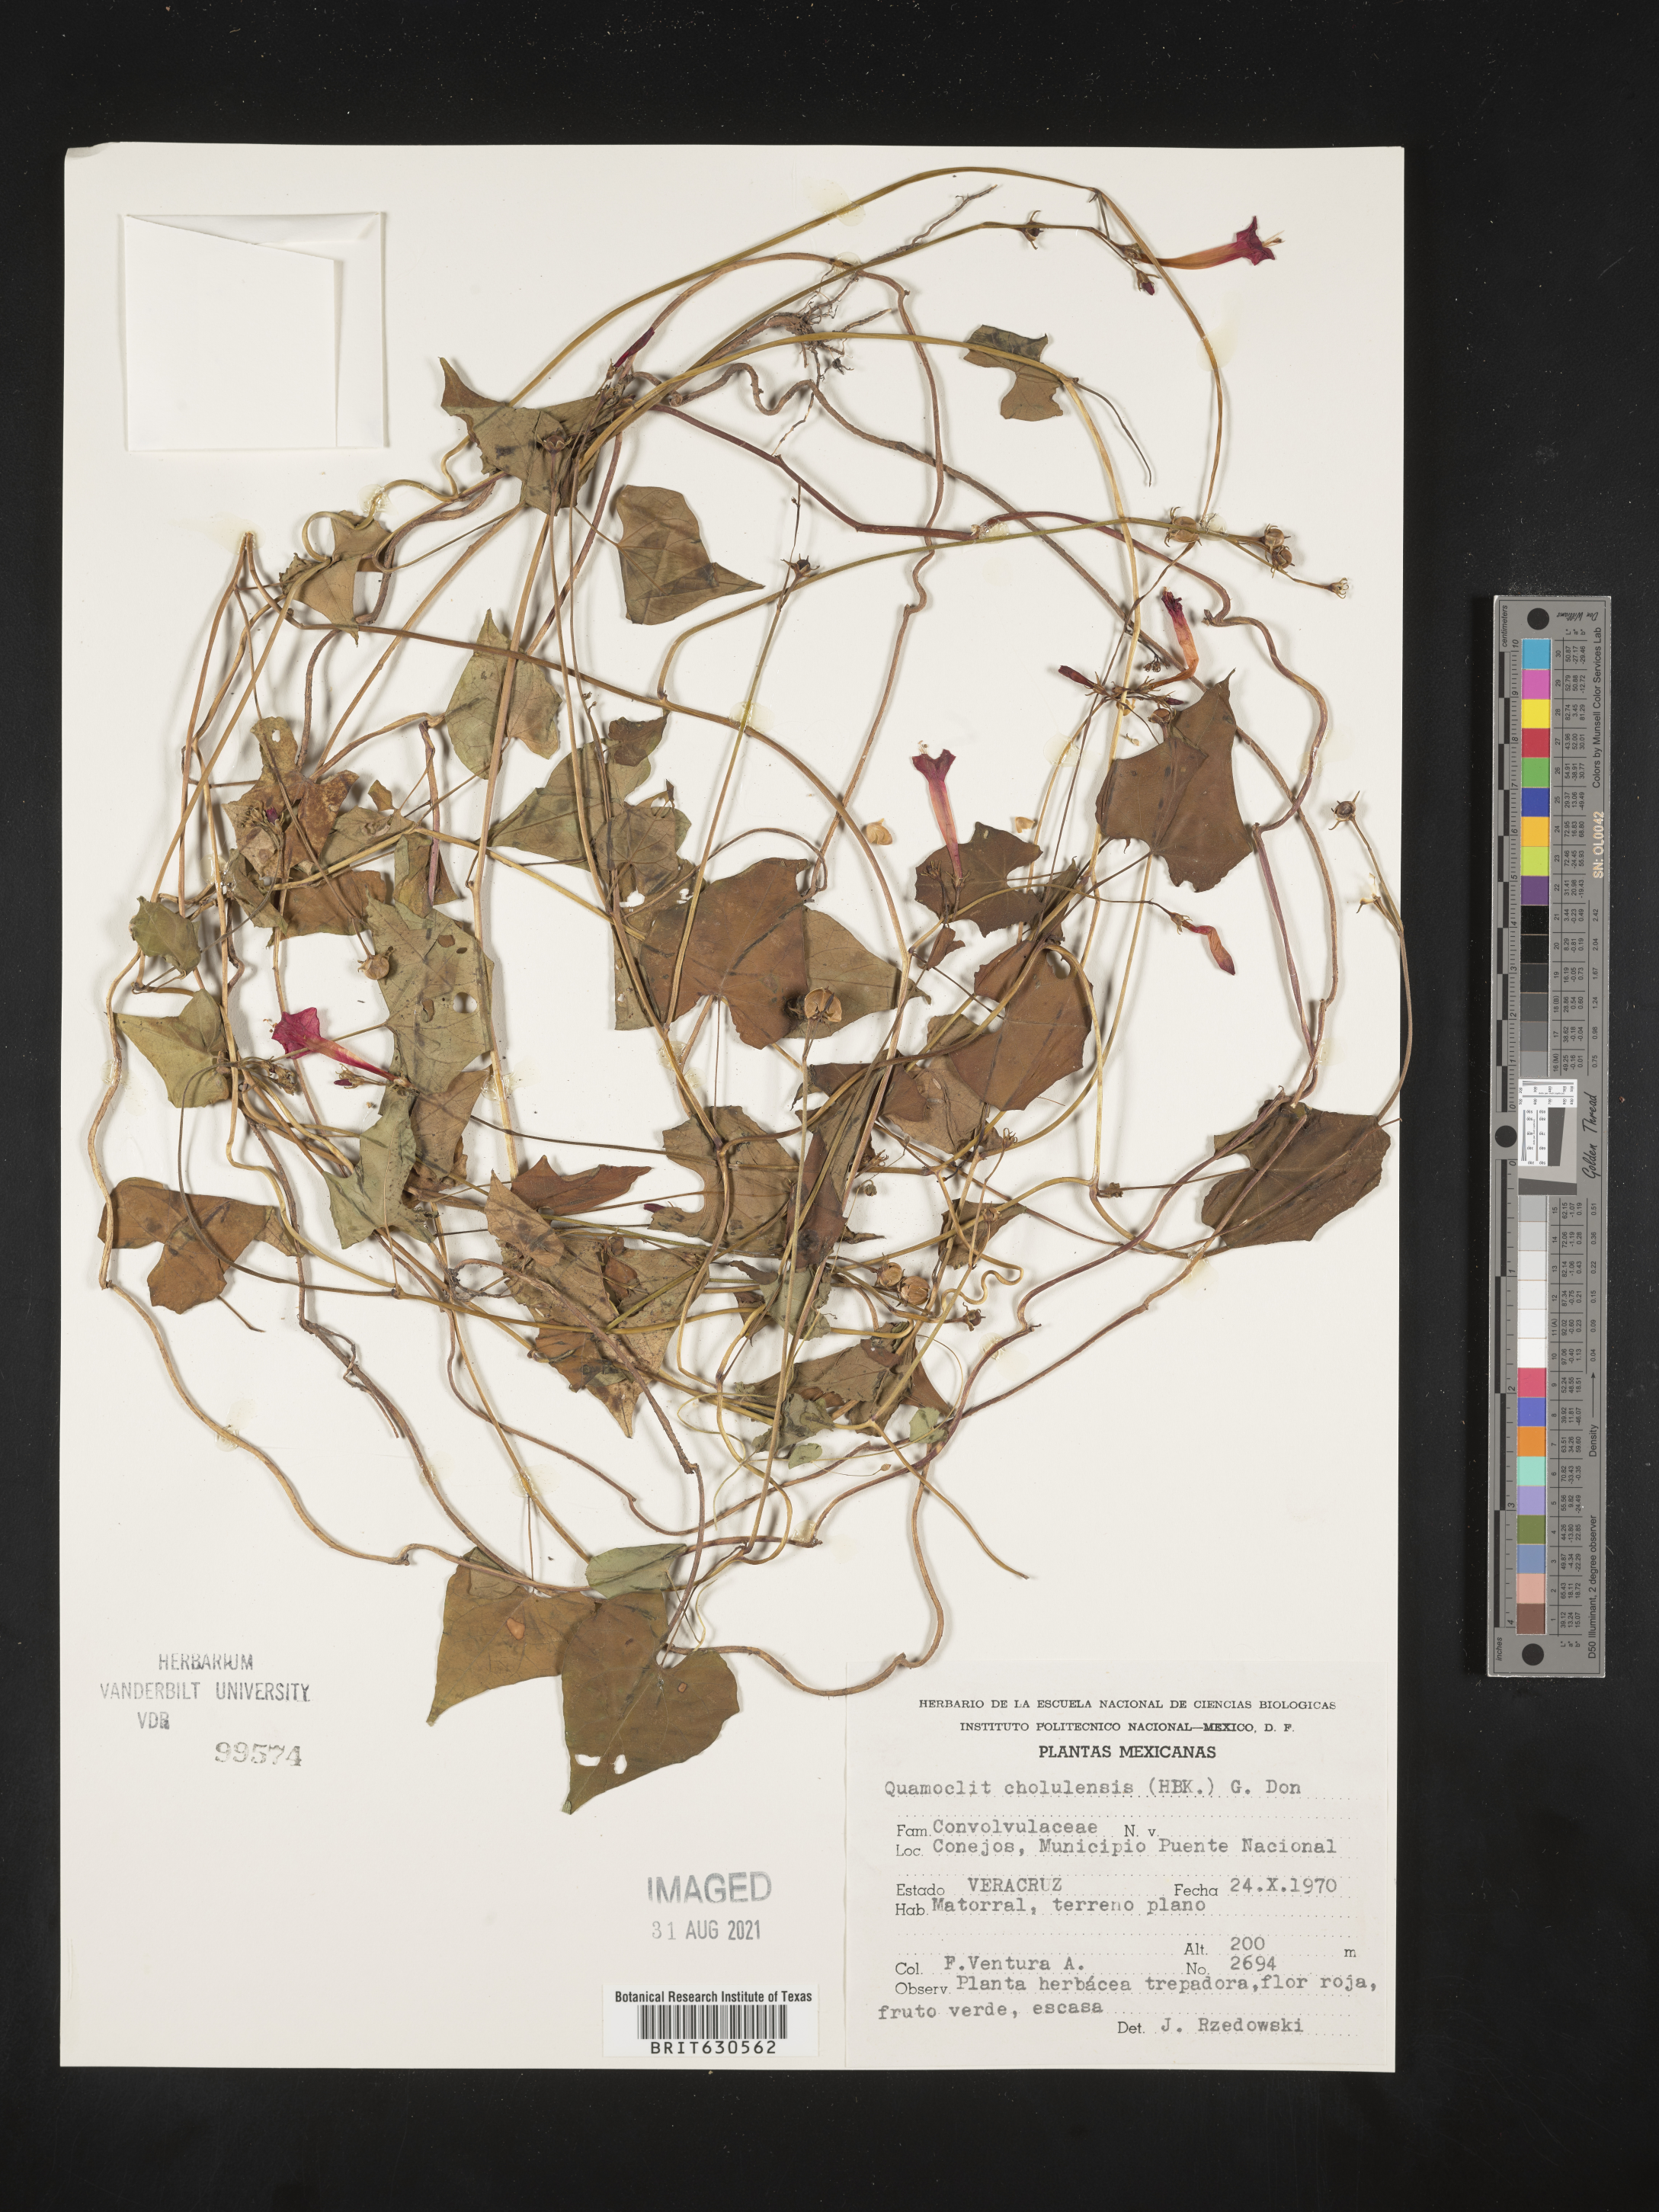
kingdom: Plantae
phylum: Tracheophyta
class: Magnoliopsida
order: Solanales
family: Convolvulaceae
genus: Ipomoea
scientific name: Ipomoea
